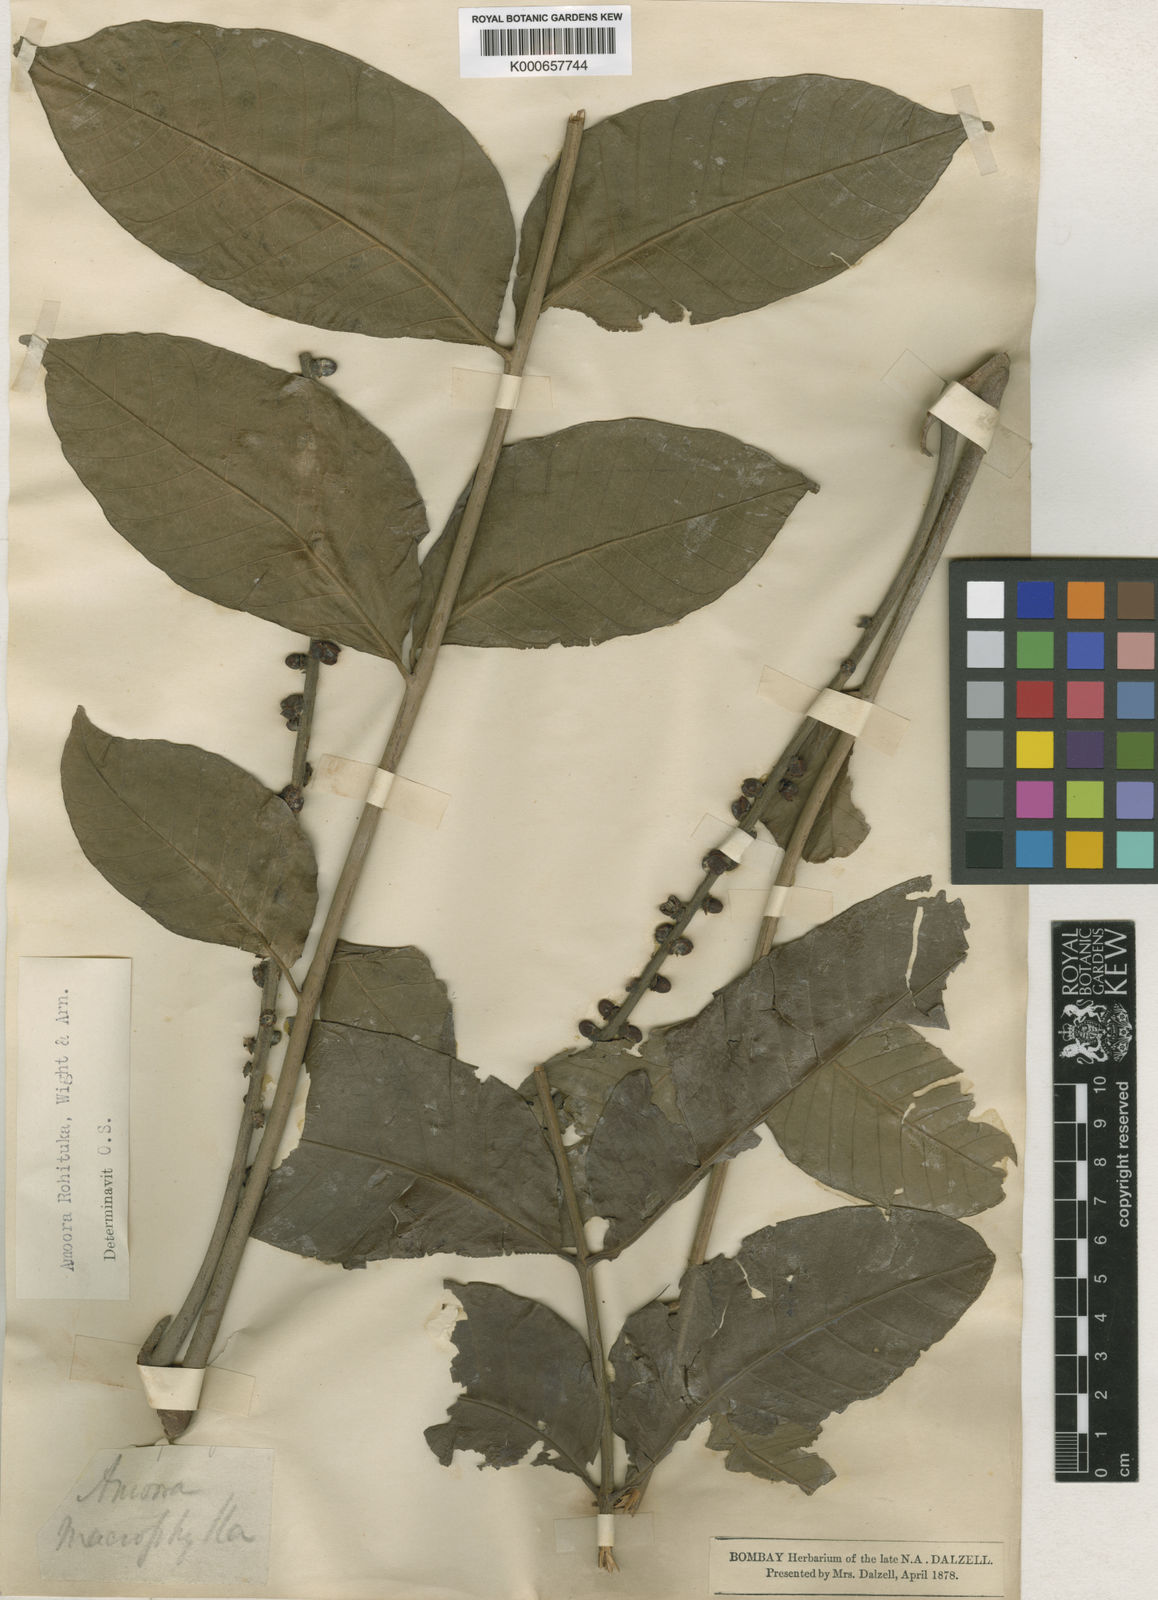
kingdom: Plantae
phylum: Tracheophyta
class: Magnoliopsida
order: Sapindales
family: Meliaceae
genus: Aphanamixis
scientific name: Aphanamixis polystachya
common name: Pithraj tree
